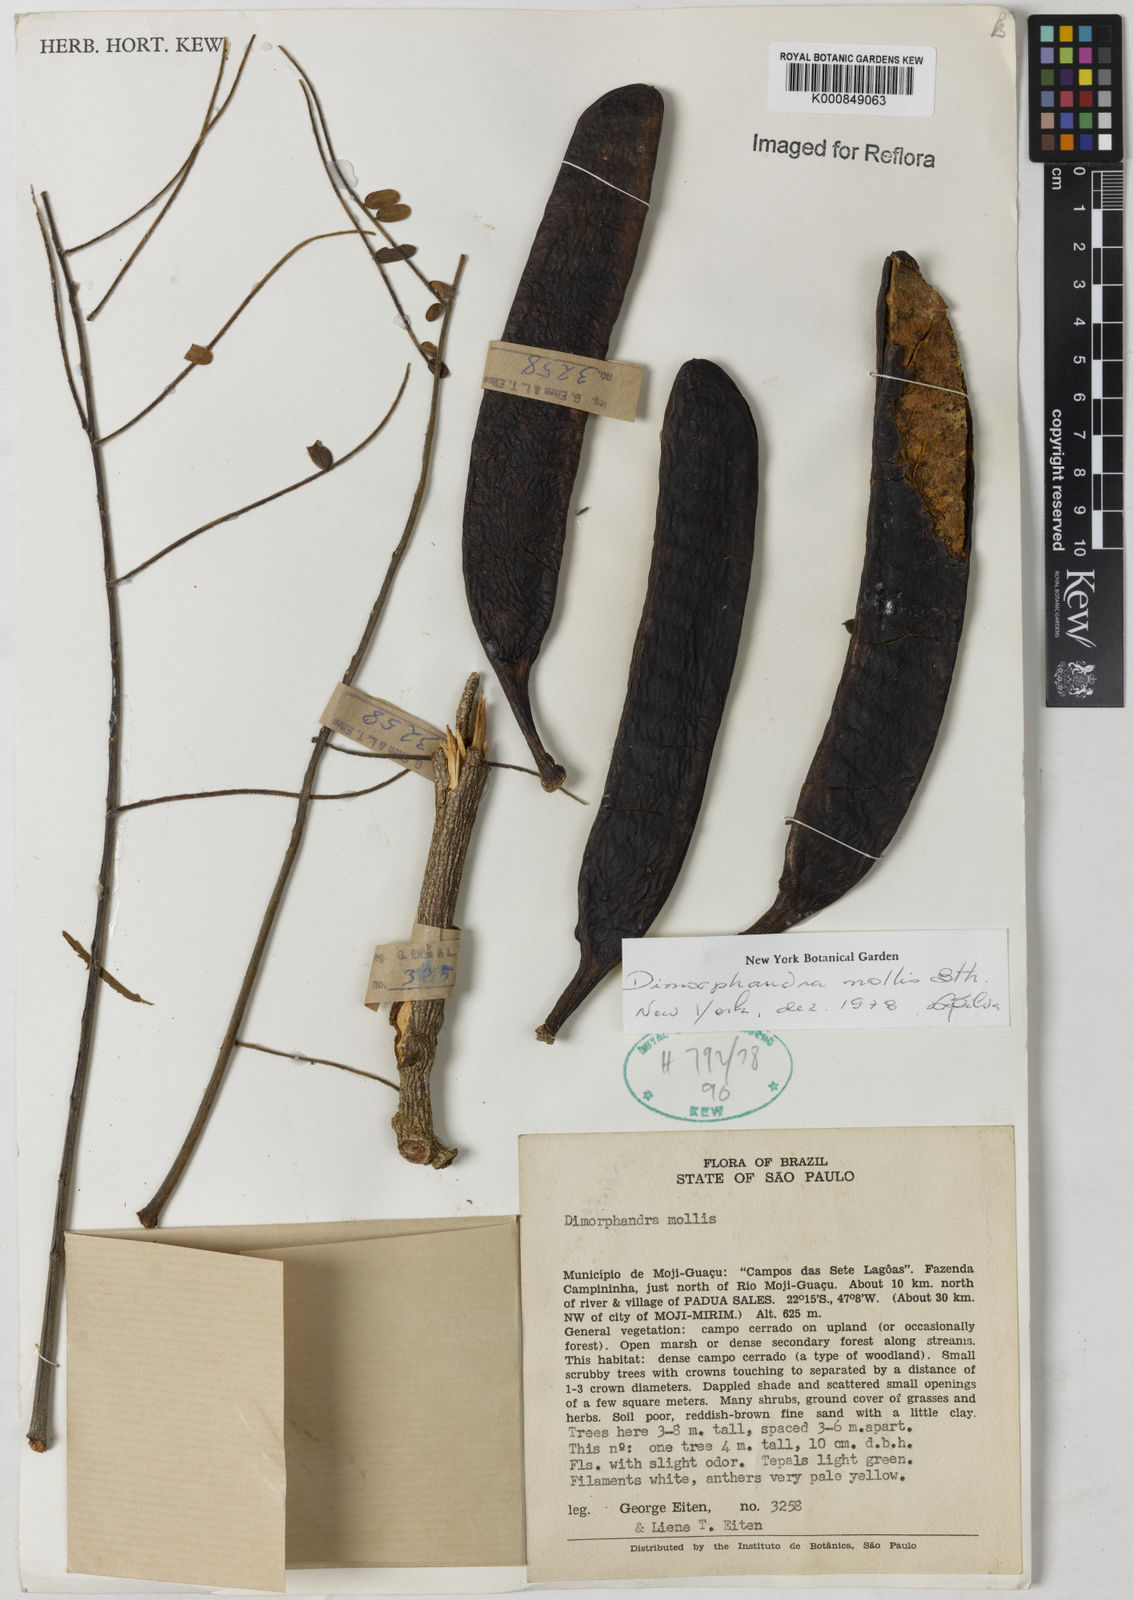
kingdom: Plantae
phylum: Tracheophyta
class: Magnoliopsida
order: Fabales
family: Fabaceae
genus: Dimorphandra
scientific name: Dimorphandra mollis
